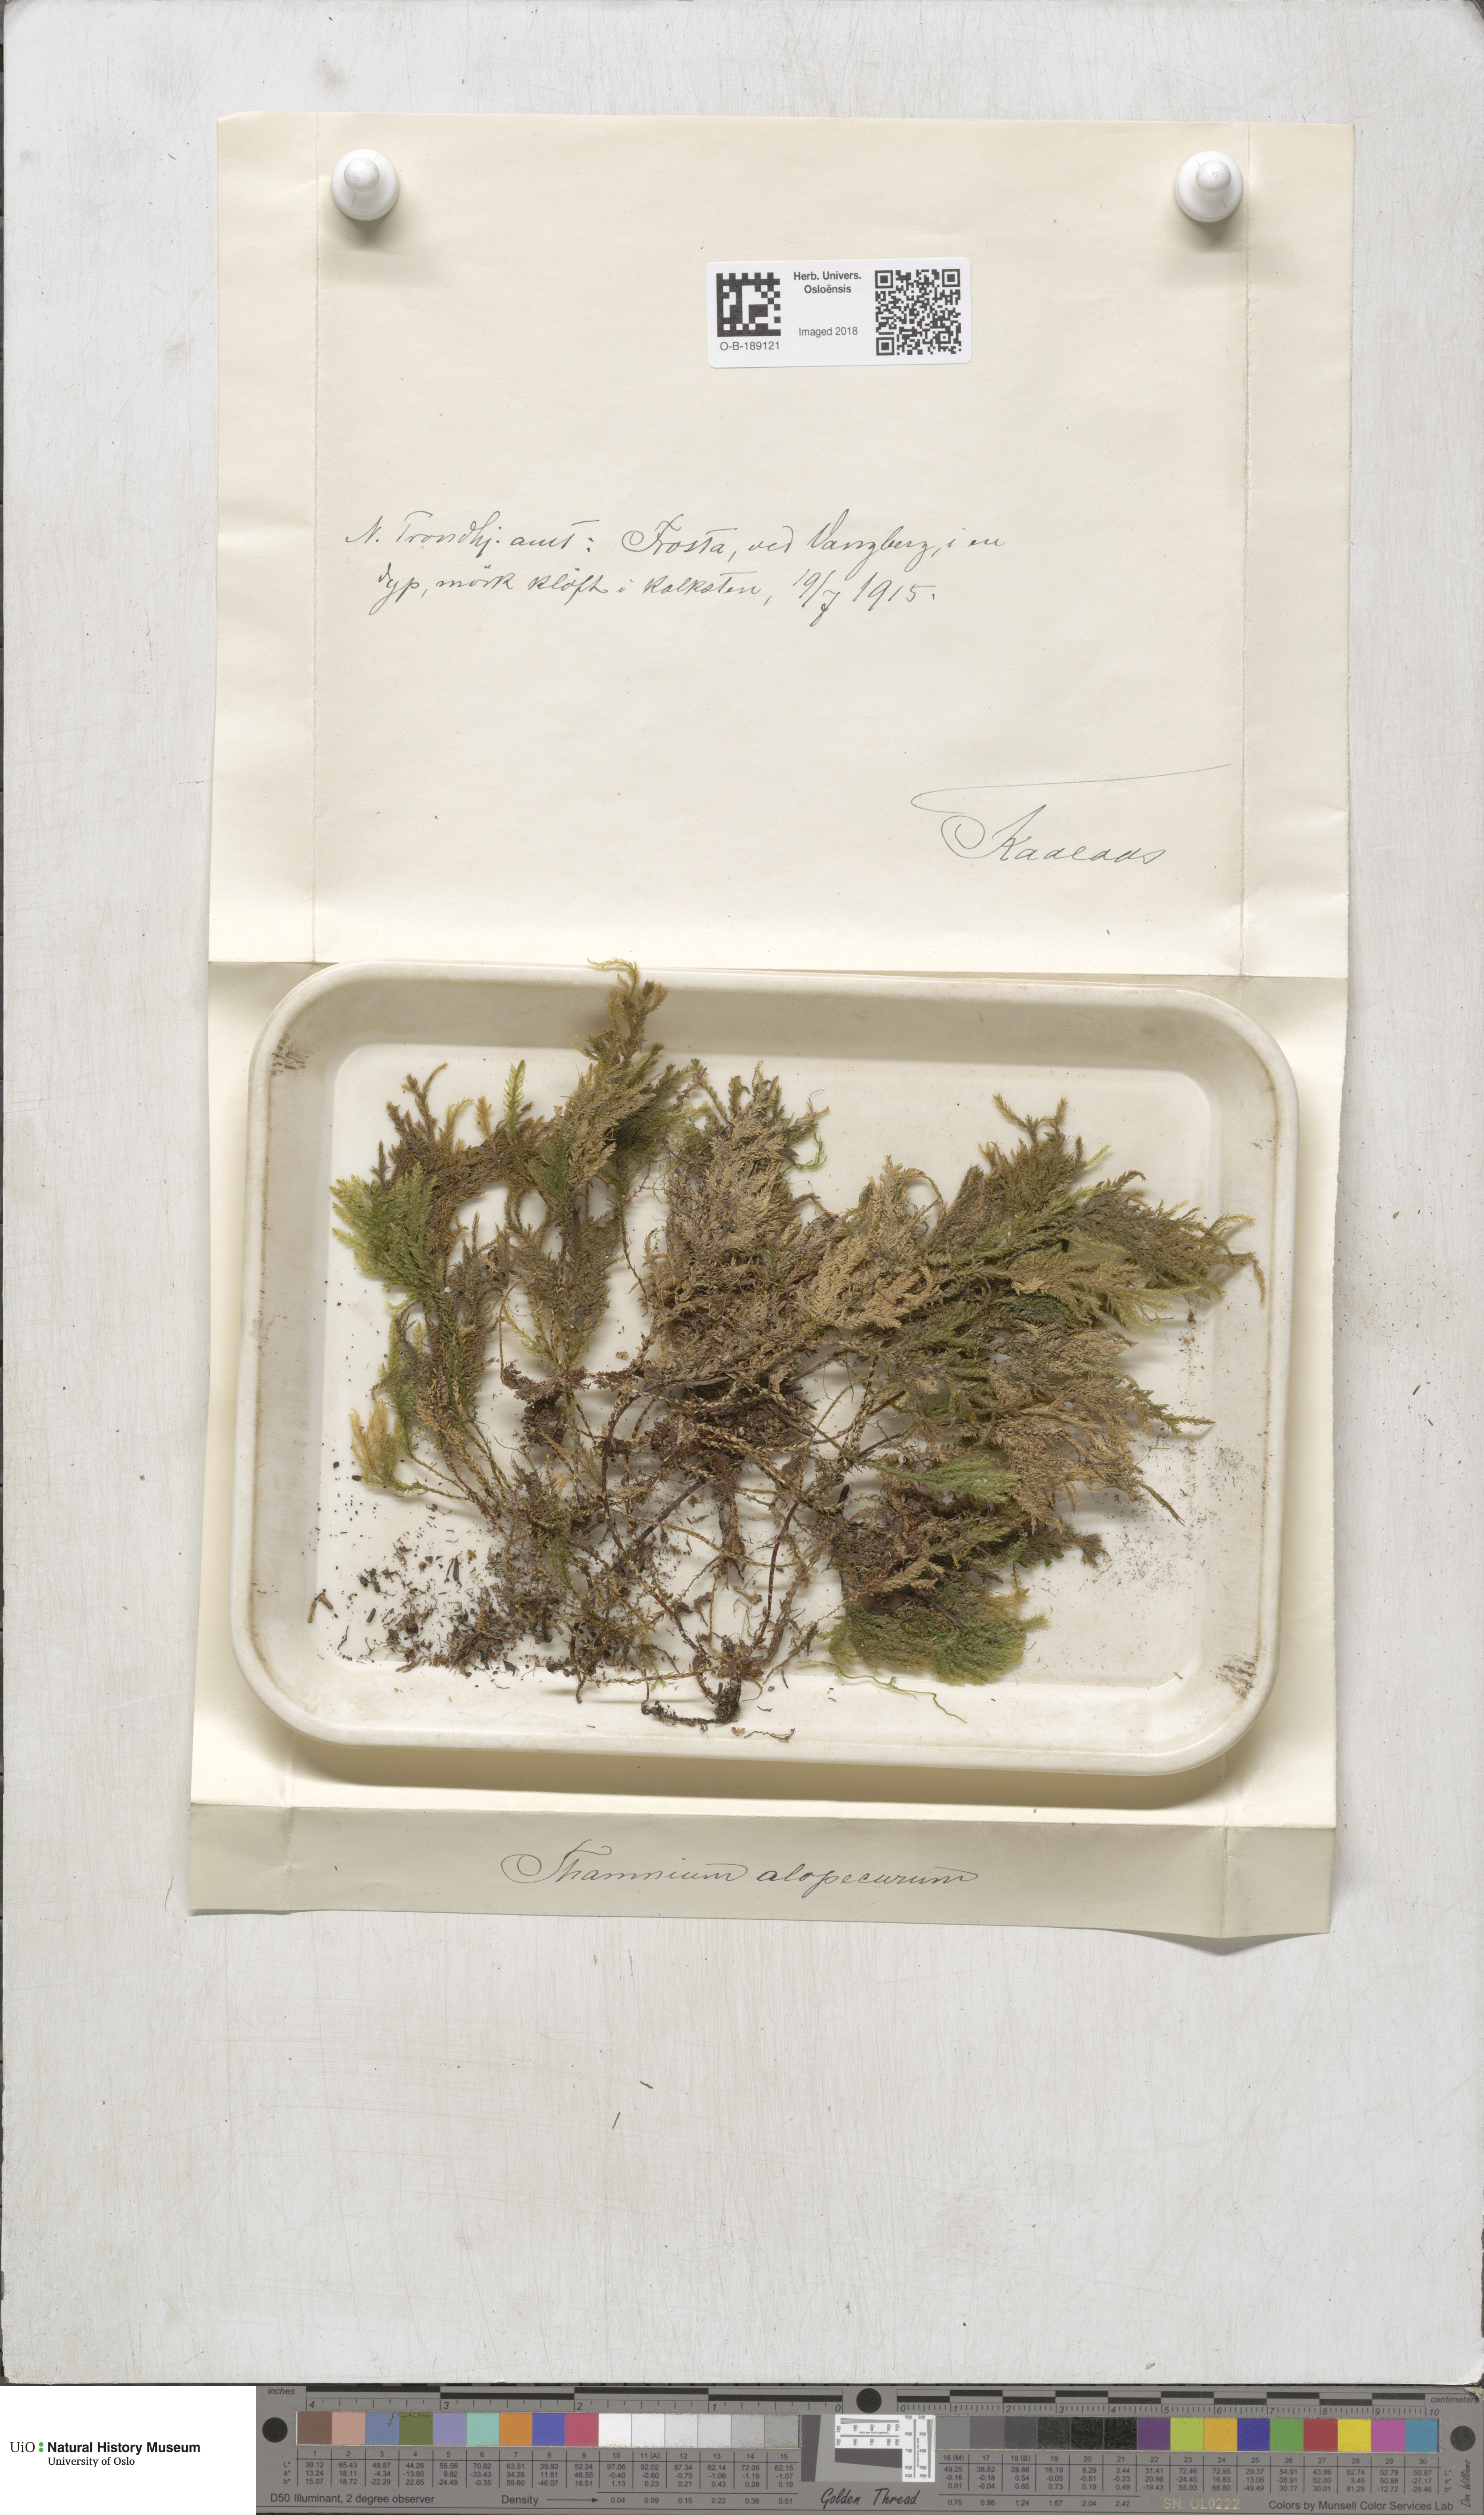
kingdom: Plantae
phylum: Bryophyta
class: Bryopsida
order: Hypnales
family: Neckeraceae
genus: Thamnobryum
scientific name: Thamnobryum alopecurum
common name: Fox-tail feather-moss
